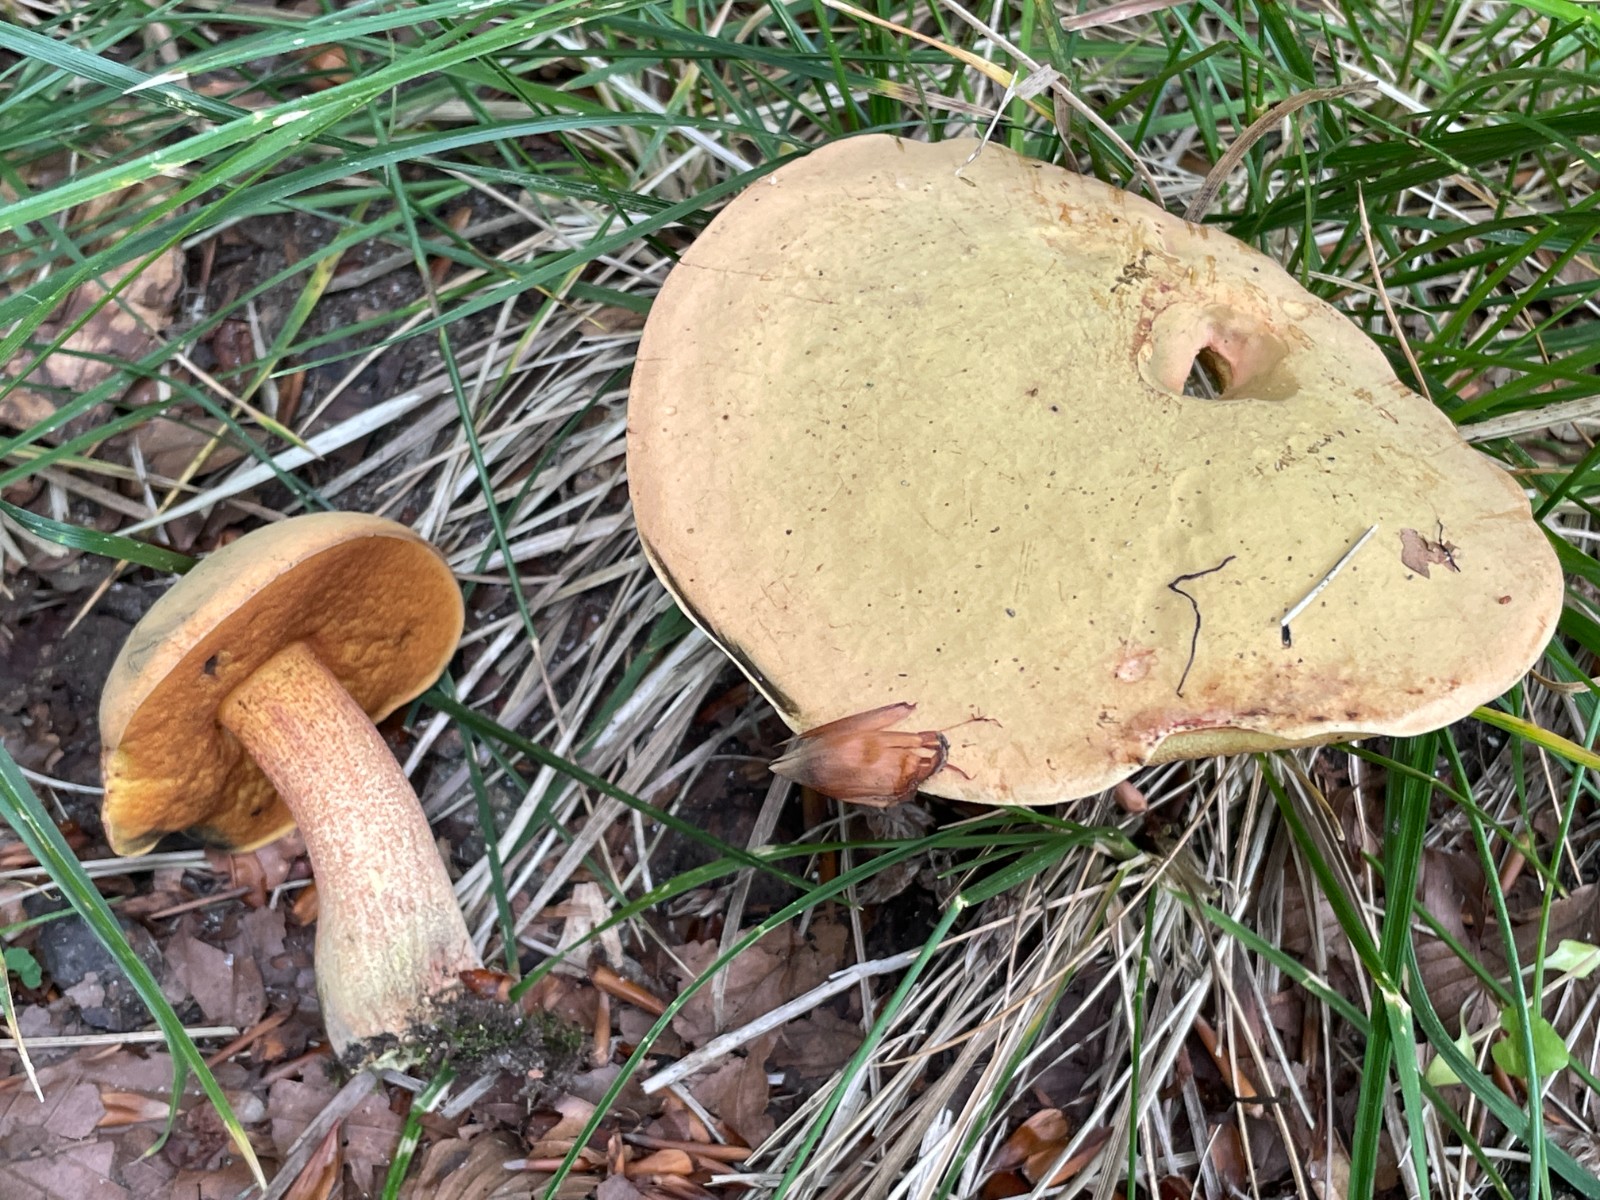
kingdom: Fungi
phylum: Basidiomycota
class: Agaricomycetes
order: Boletales
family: Boletaceae
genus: Suillellus
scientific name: Suillellus luridus
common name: netstokket indigorørhat
